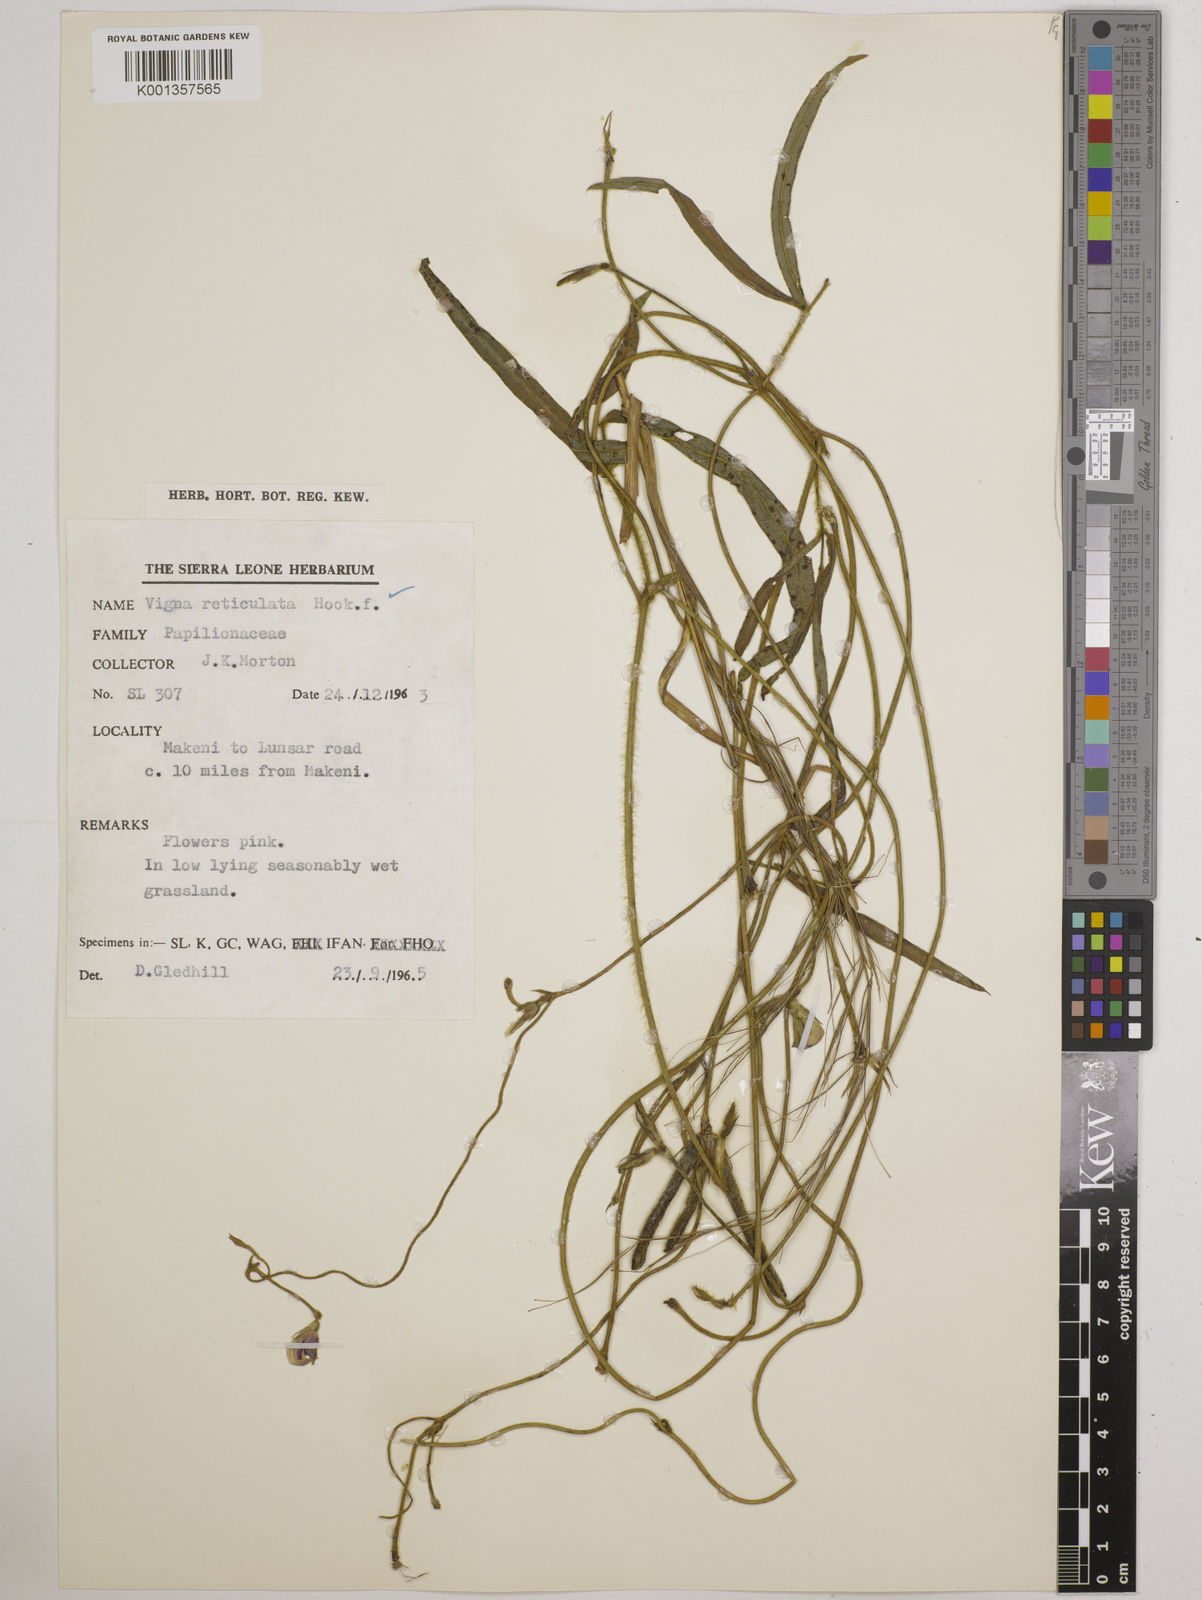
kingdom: Plantae
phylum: Tracheophyta
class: Magnoliopsida
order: Fabales
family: Fabaceae
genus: Vigna
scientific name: Vigna reticulata
